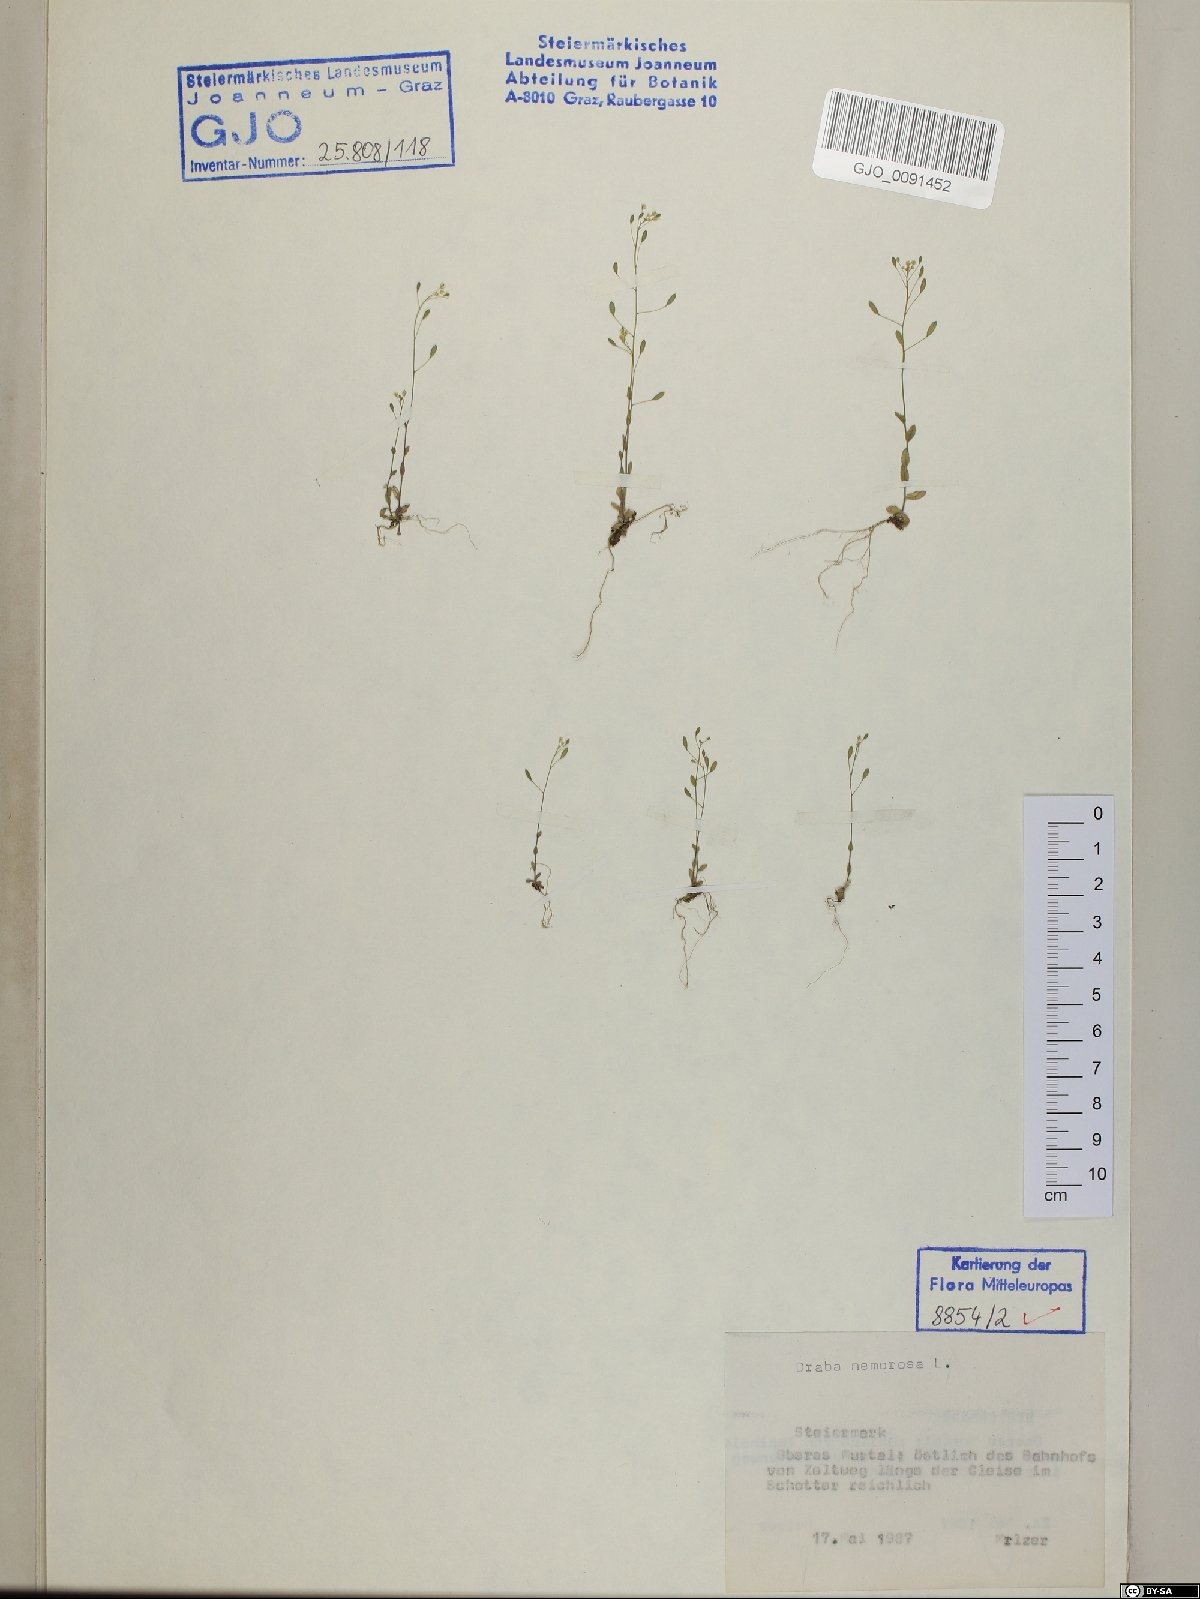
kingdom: Plantae
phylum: Tracheophyta
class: Magnoliopsida
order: Brassicales
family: Brassicaceae
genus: Draba
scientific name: Draba nemorosa
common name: Wood whitlow-grass
